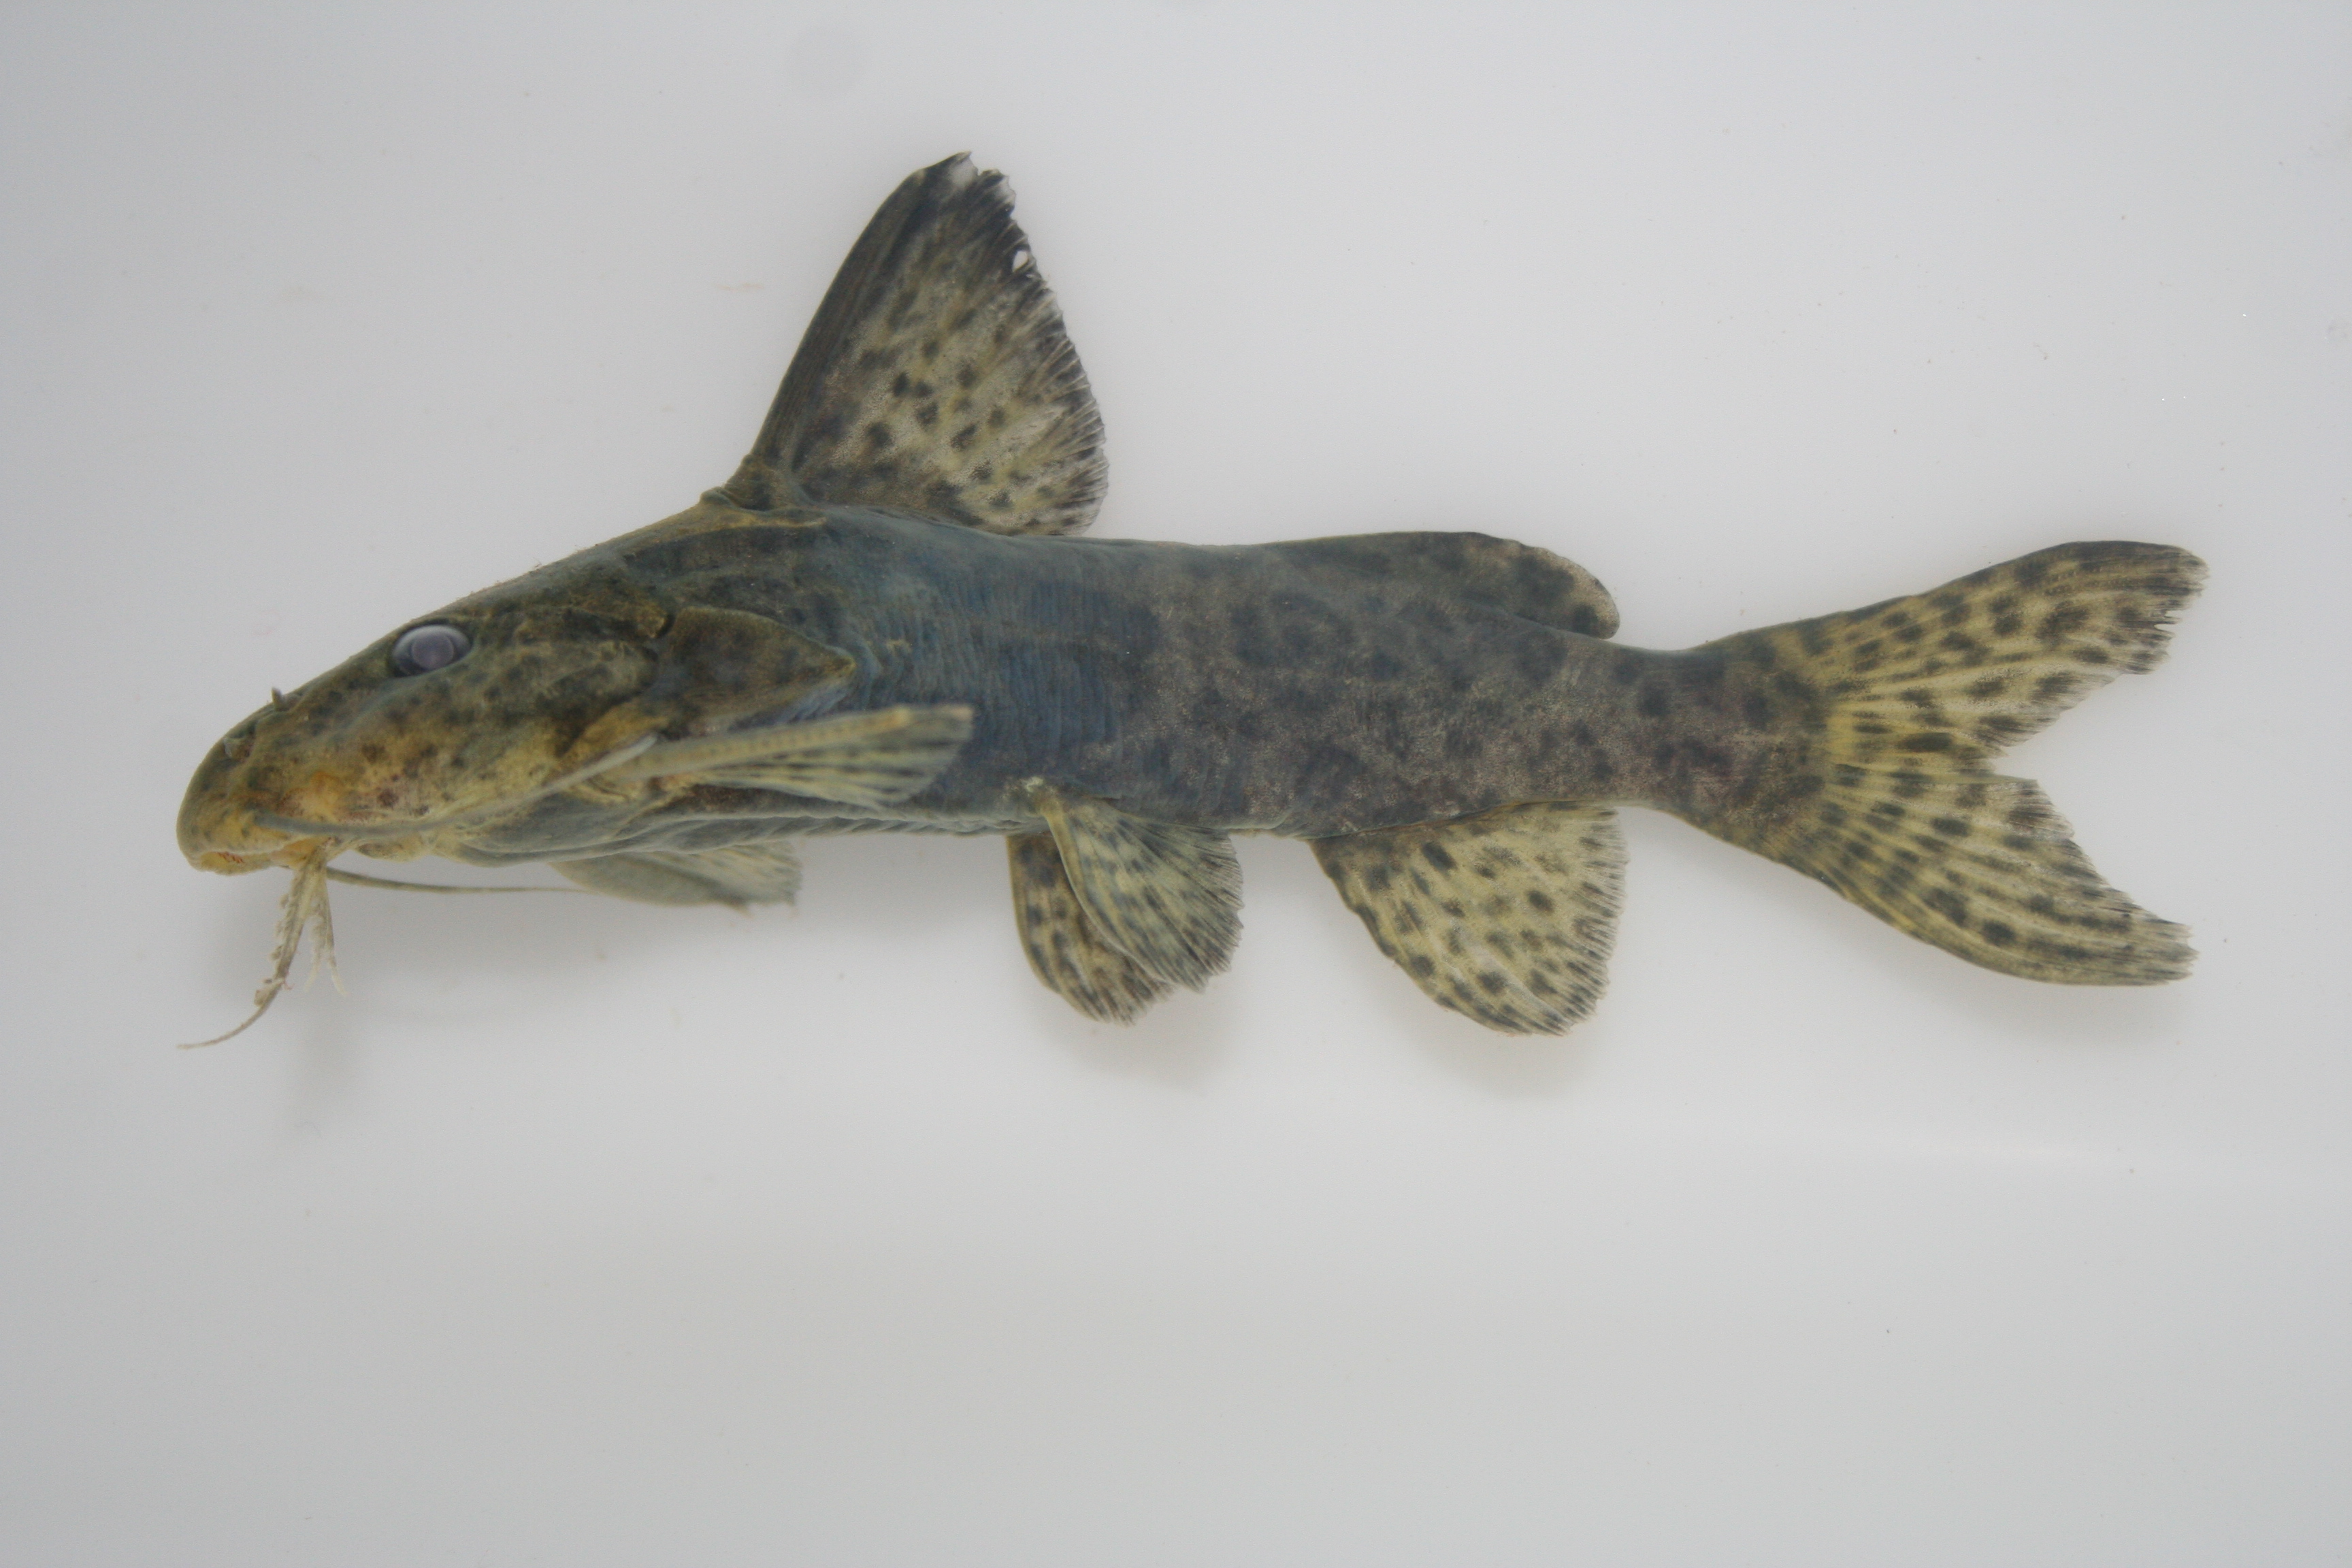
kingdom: Animalia
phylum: Chordata
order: Siluriformes
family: Mochokidae
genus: Synodontis
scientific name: Synodontis
